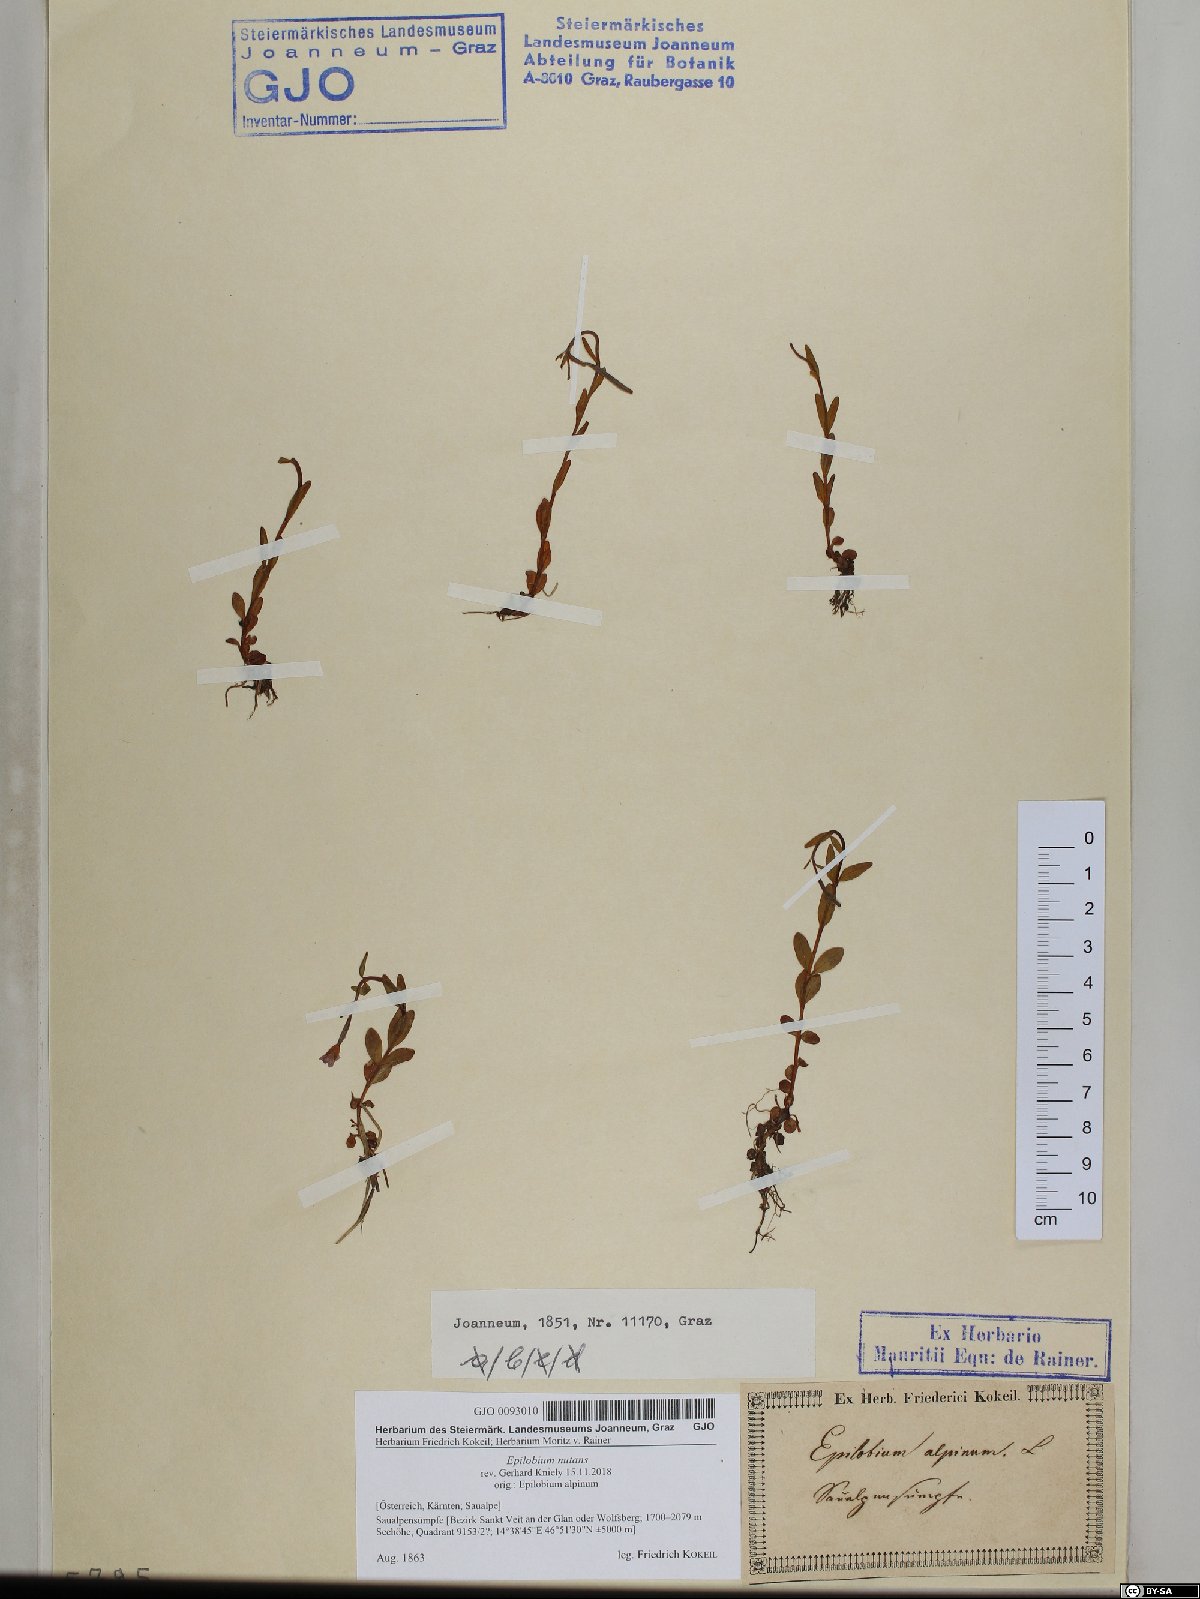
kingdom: Plantae
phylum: Tracheophyta
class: Magnoliopsida
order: Myrtales
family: Onagraceae
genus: Epilobium
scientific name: Epilobium nutans
